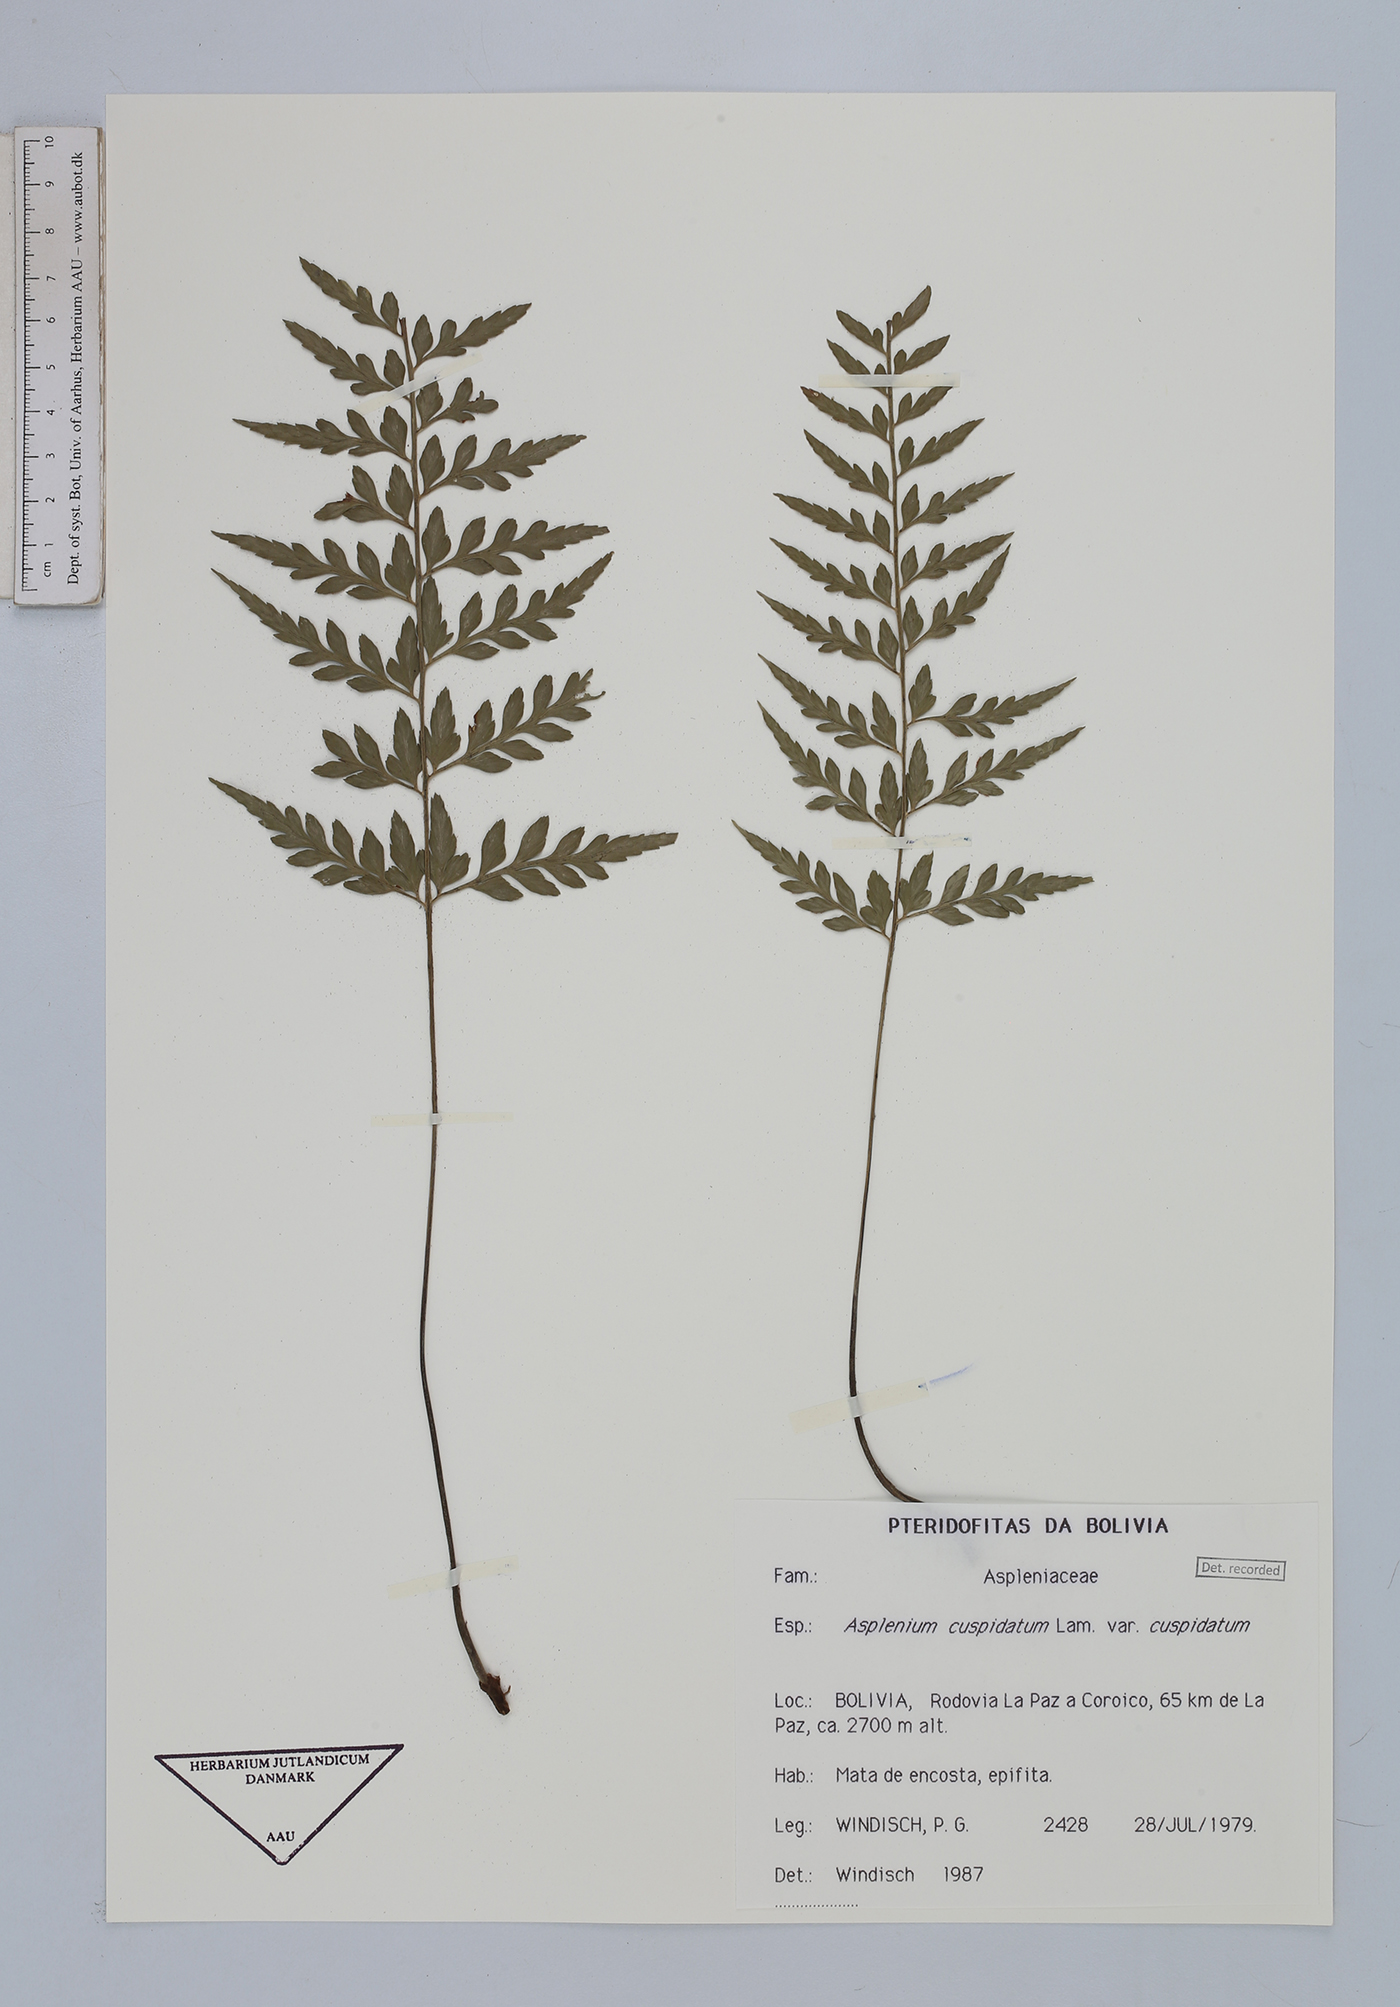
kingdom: Plantae
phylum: Tracheophyta
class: Polypodiopsida
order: Polypodiales
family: Aspleniaceae
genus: Asplenium
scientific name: Asplenium cuspidatum
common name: Eared spleenwort
